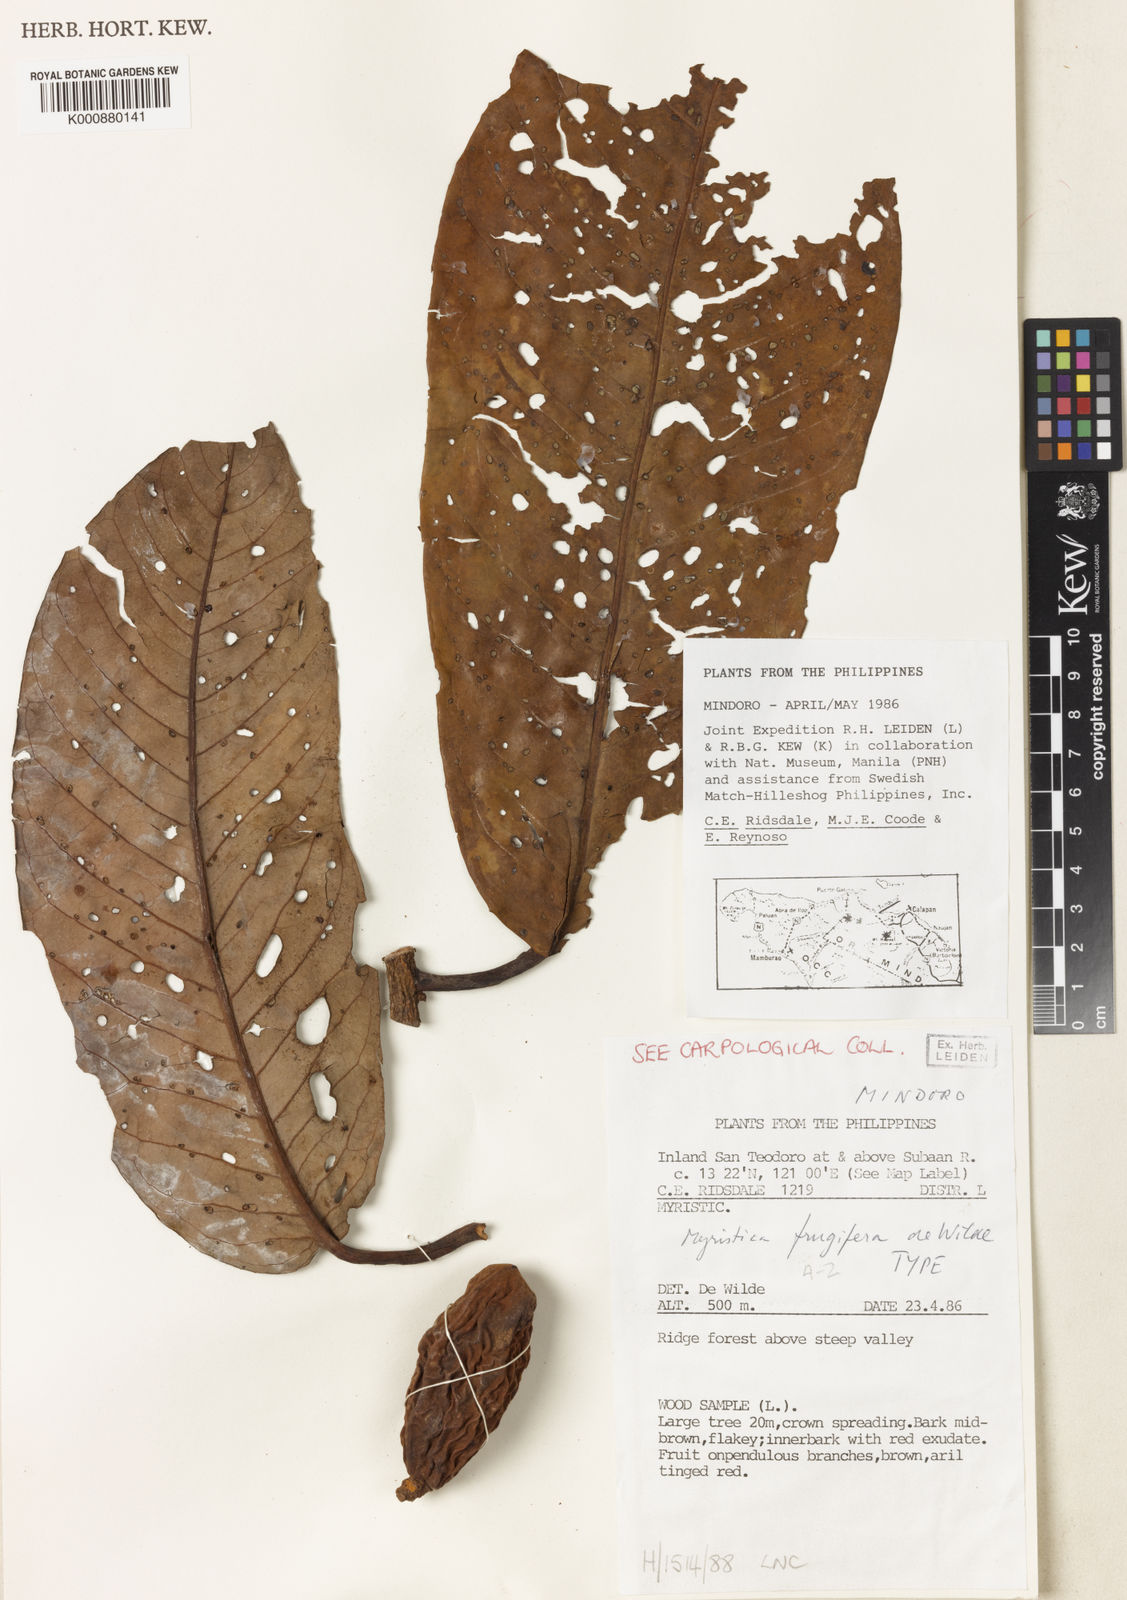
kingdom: Plantae
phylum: Tracheophyta
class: Magnoliopsida
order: Magnoliales
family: Myristicaceae
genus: Myristica
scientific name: Myristica frugifera
